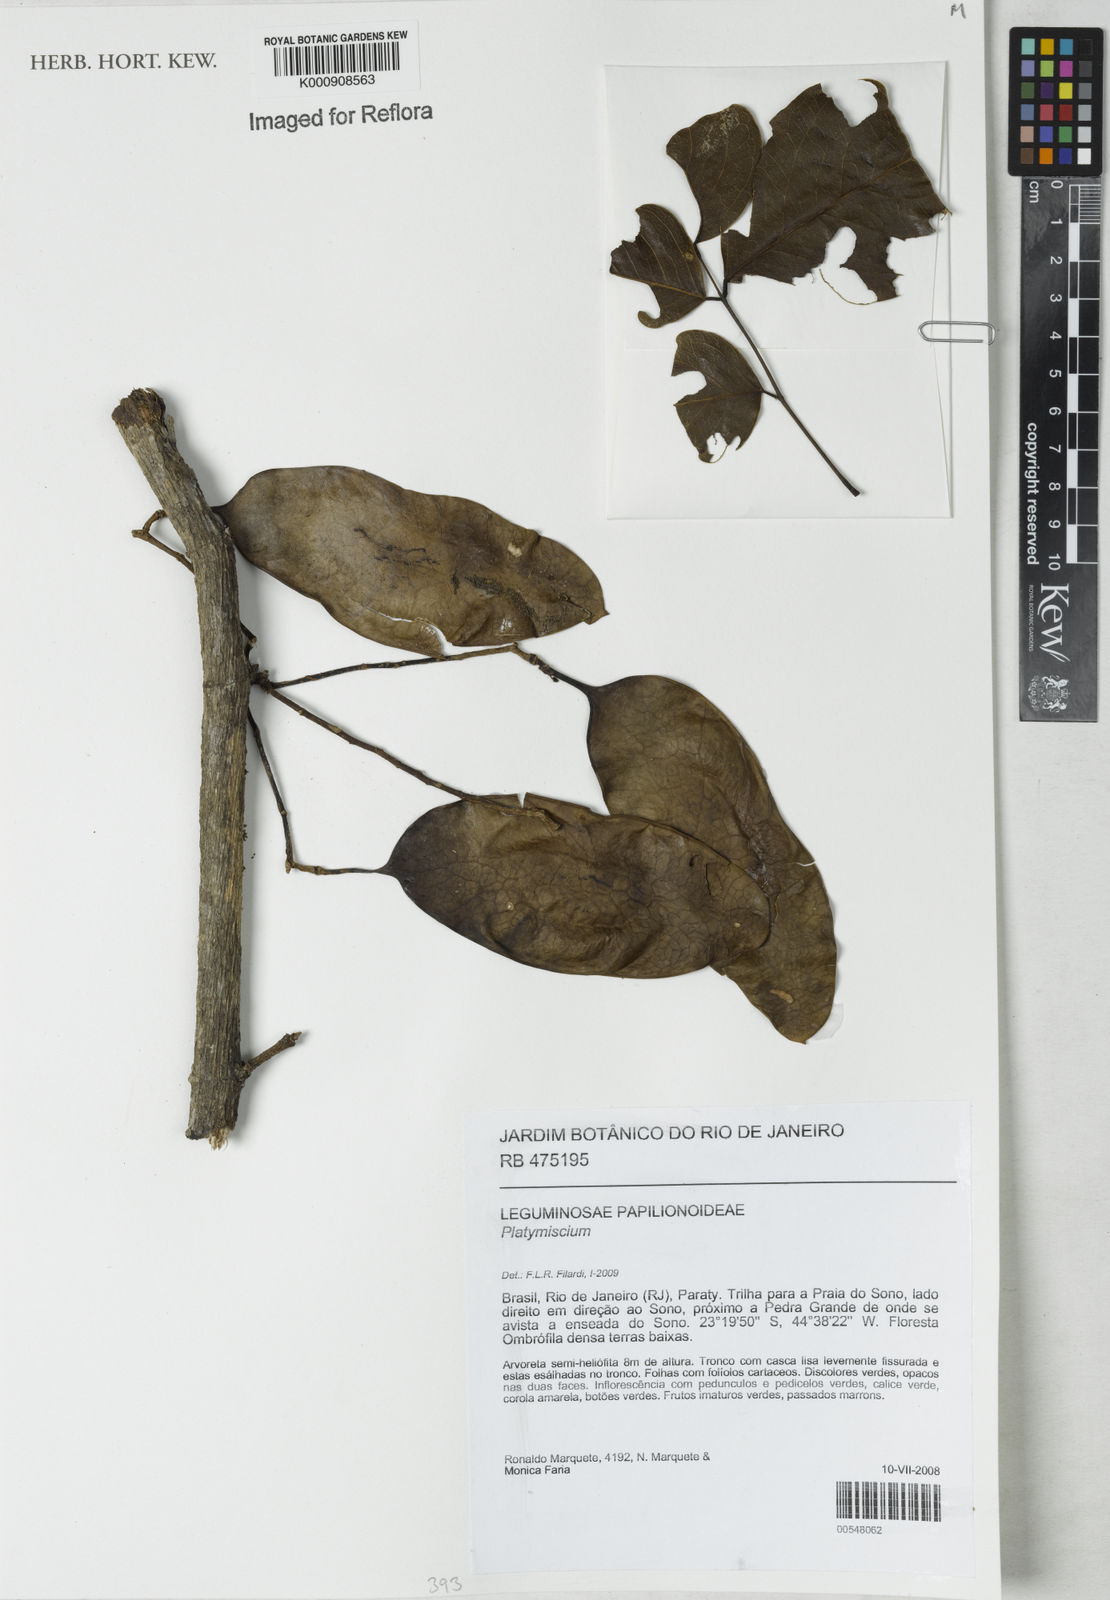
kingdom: Plantae
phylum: Tracheophyta
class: Magnoliopsida
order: Fabales
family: Fabaceae
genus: Platymiscium
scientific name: Platymiscium
